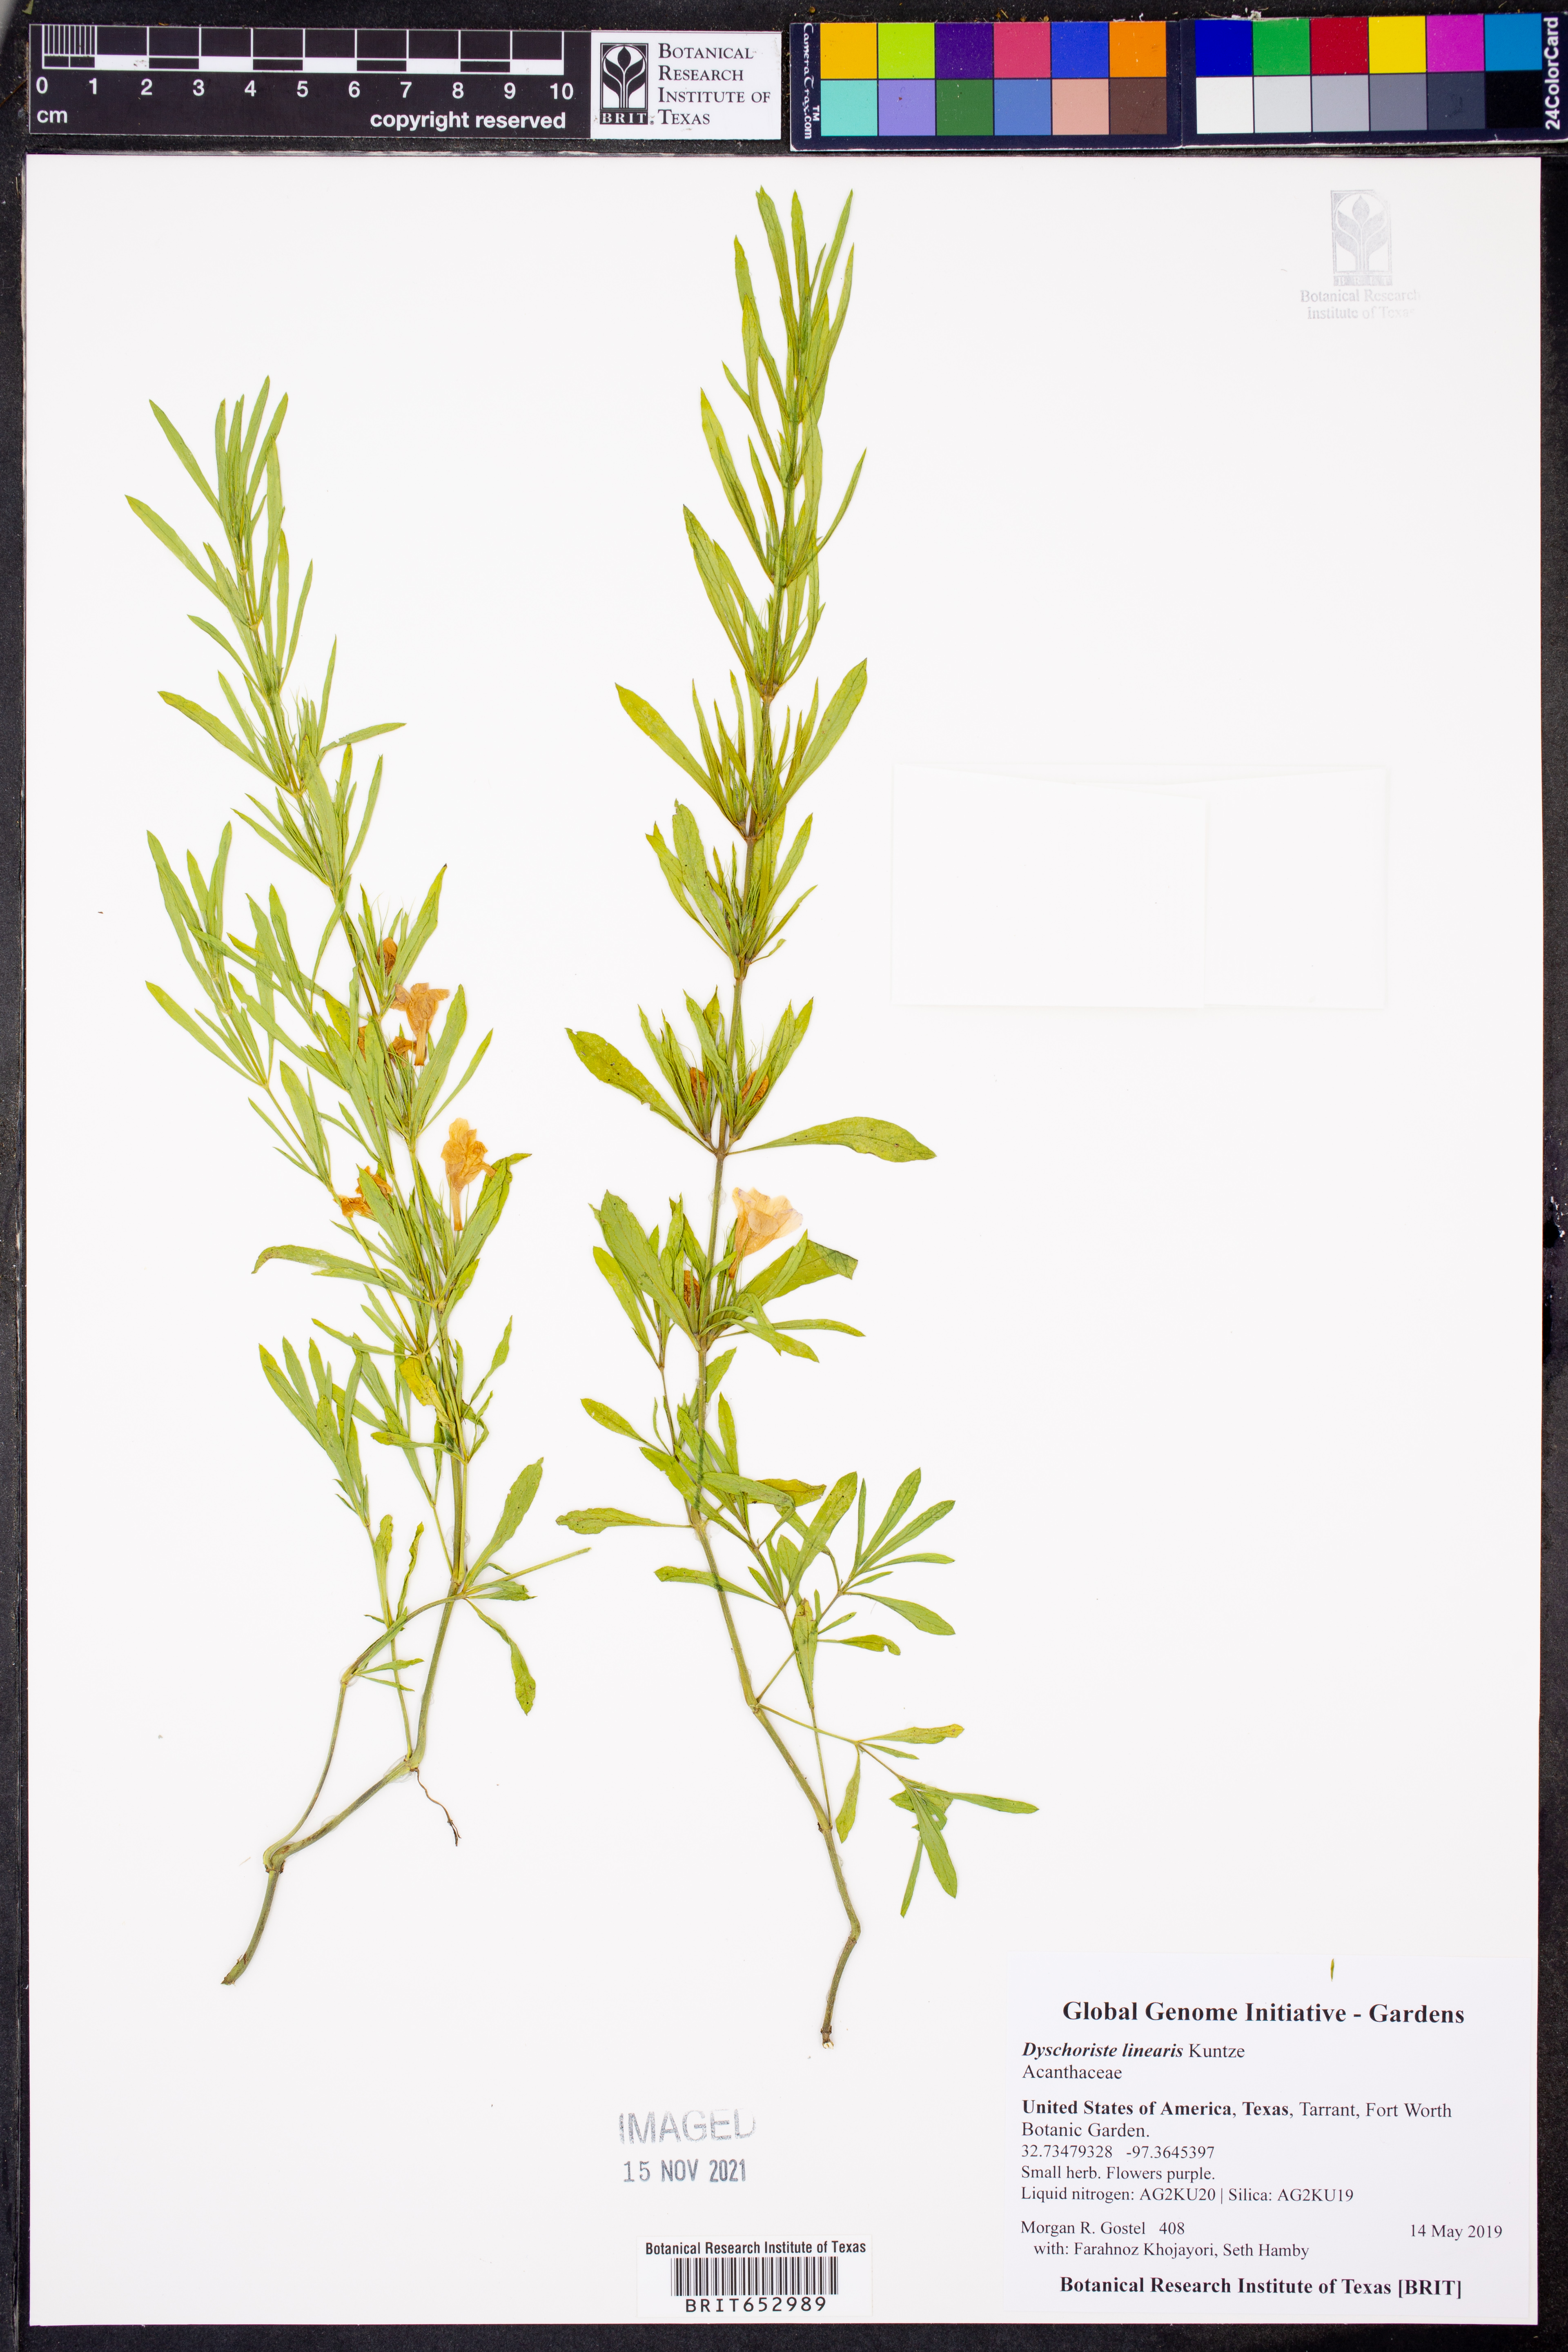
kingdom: Plantae
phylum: Tracheophyta
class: Magnoliopsida
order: Lamiales
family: Acanthaceae
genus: Dyschoriste
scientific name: Dyschoriste linearis
